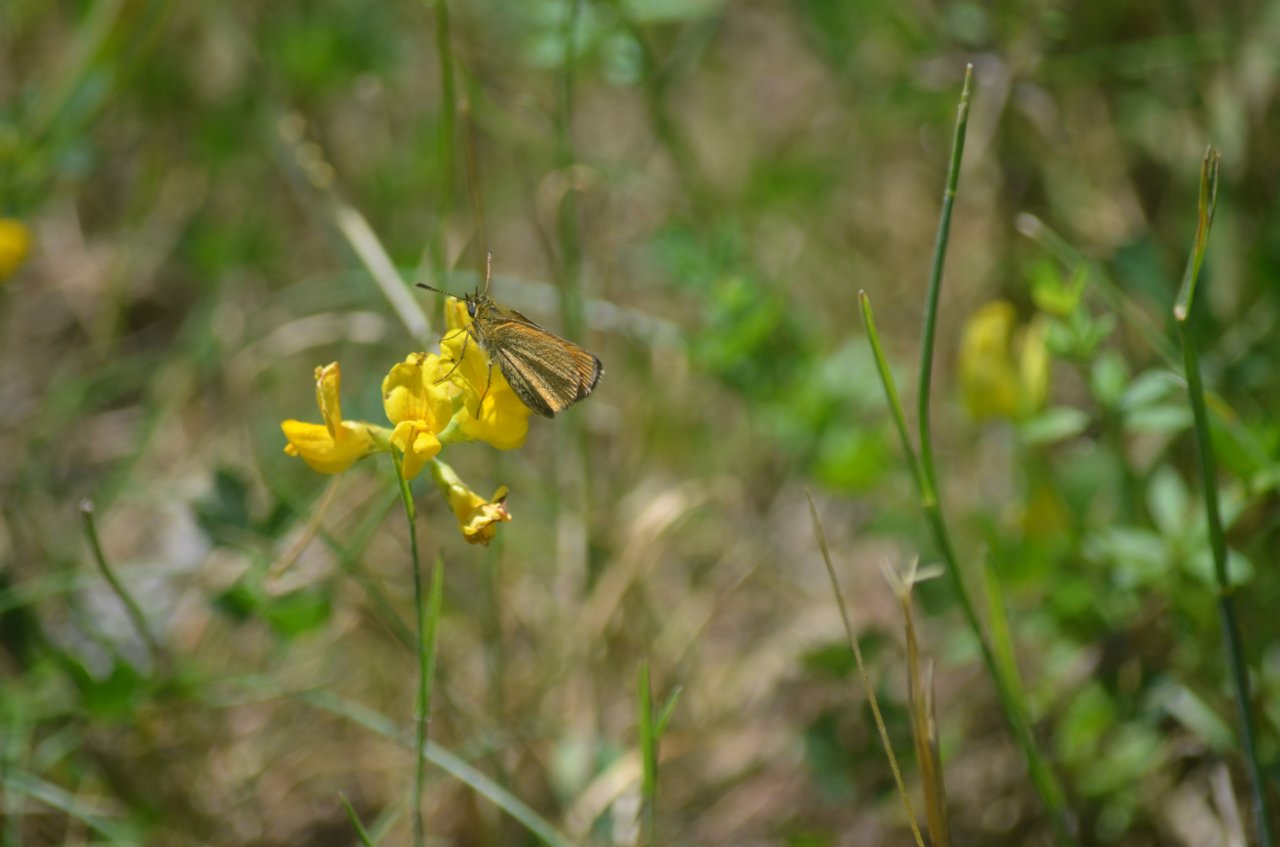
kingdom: Animalia
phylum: Arthropoda
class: Insecta
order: Lepidoptera
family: Hesperiidae
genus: Thymelicus
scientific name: Thymelicus lineola
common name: European Skipper
